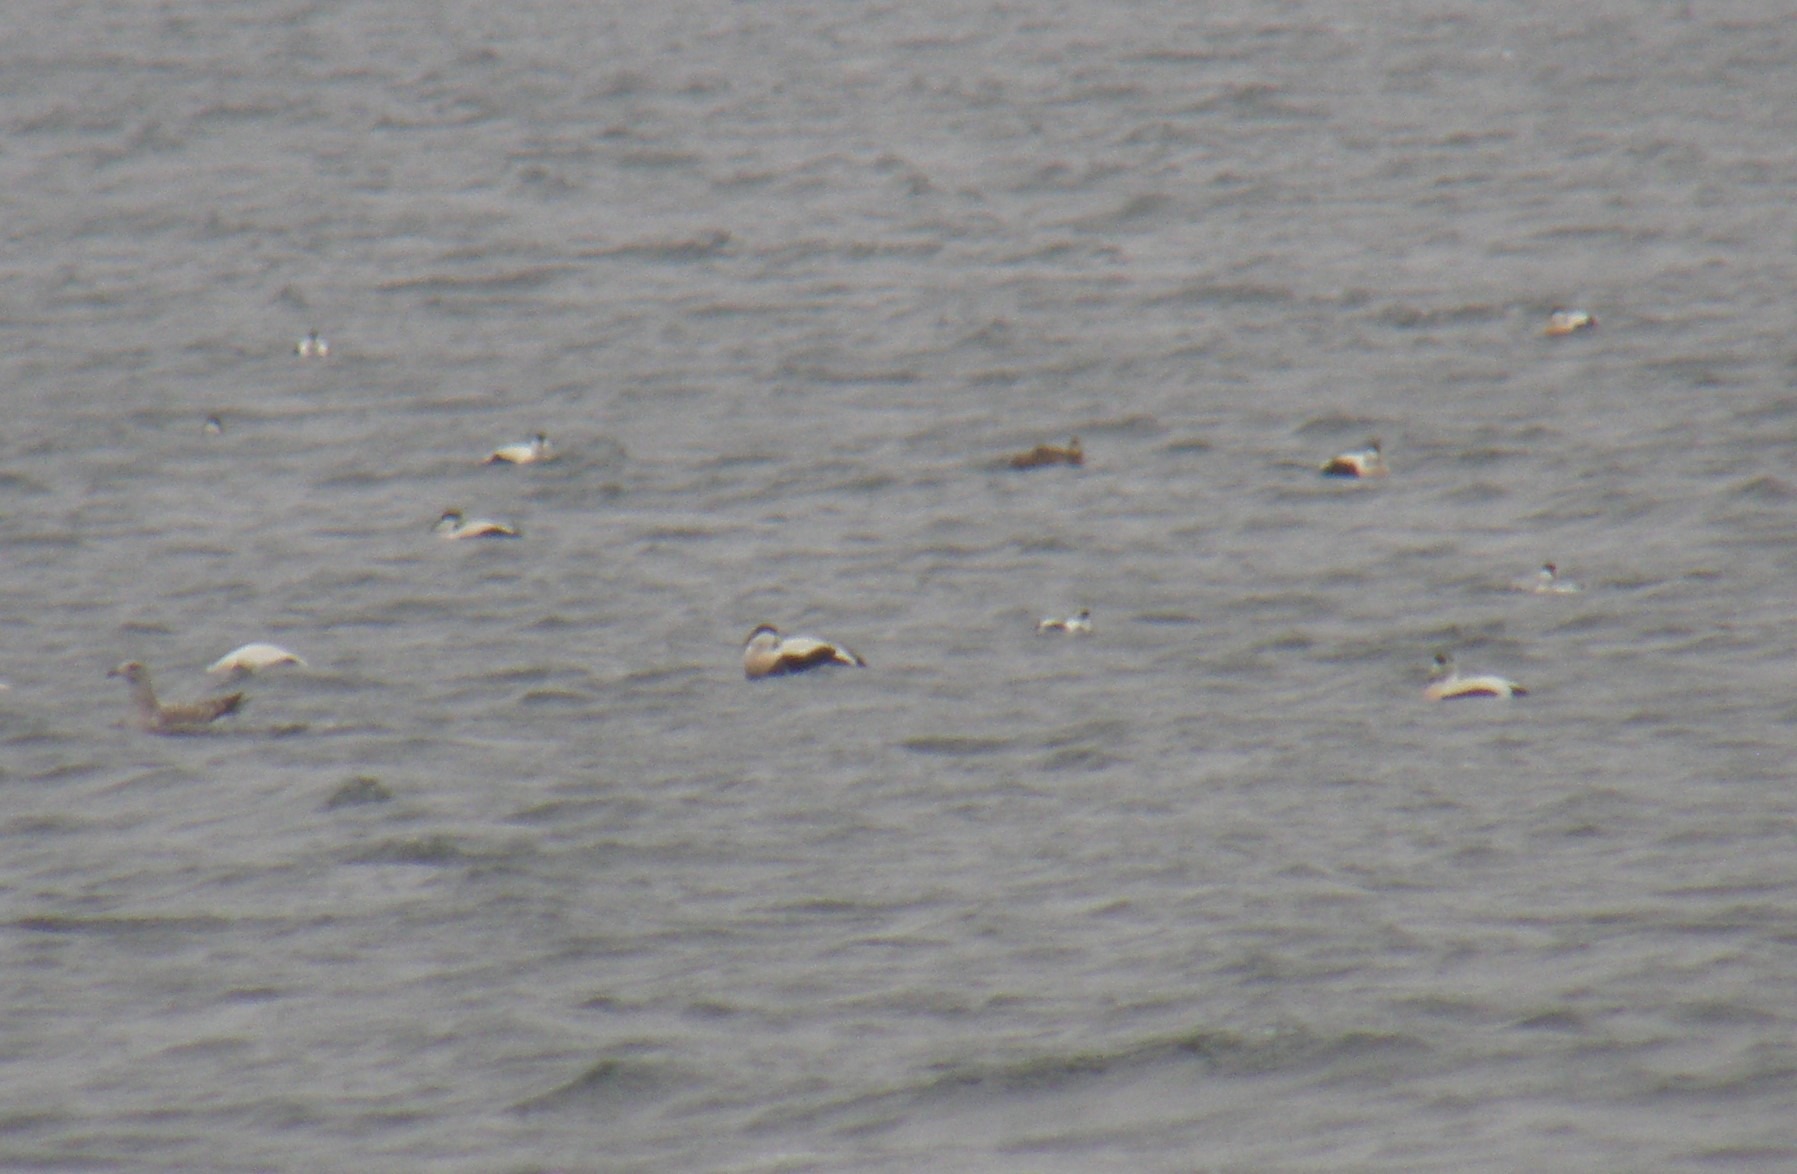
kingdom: Animalia
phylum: Chordata
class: Aves
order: Anseriformes
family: Anatidae
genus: Somateria
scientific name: Somateria mollissima
